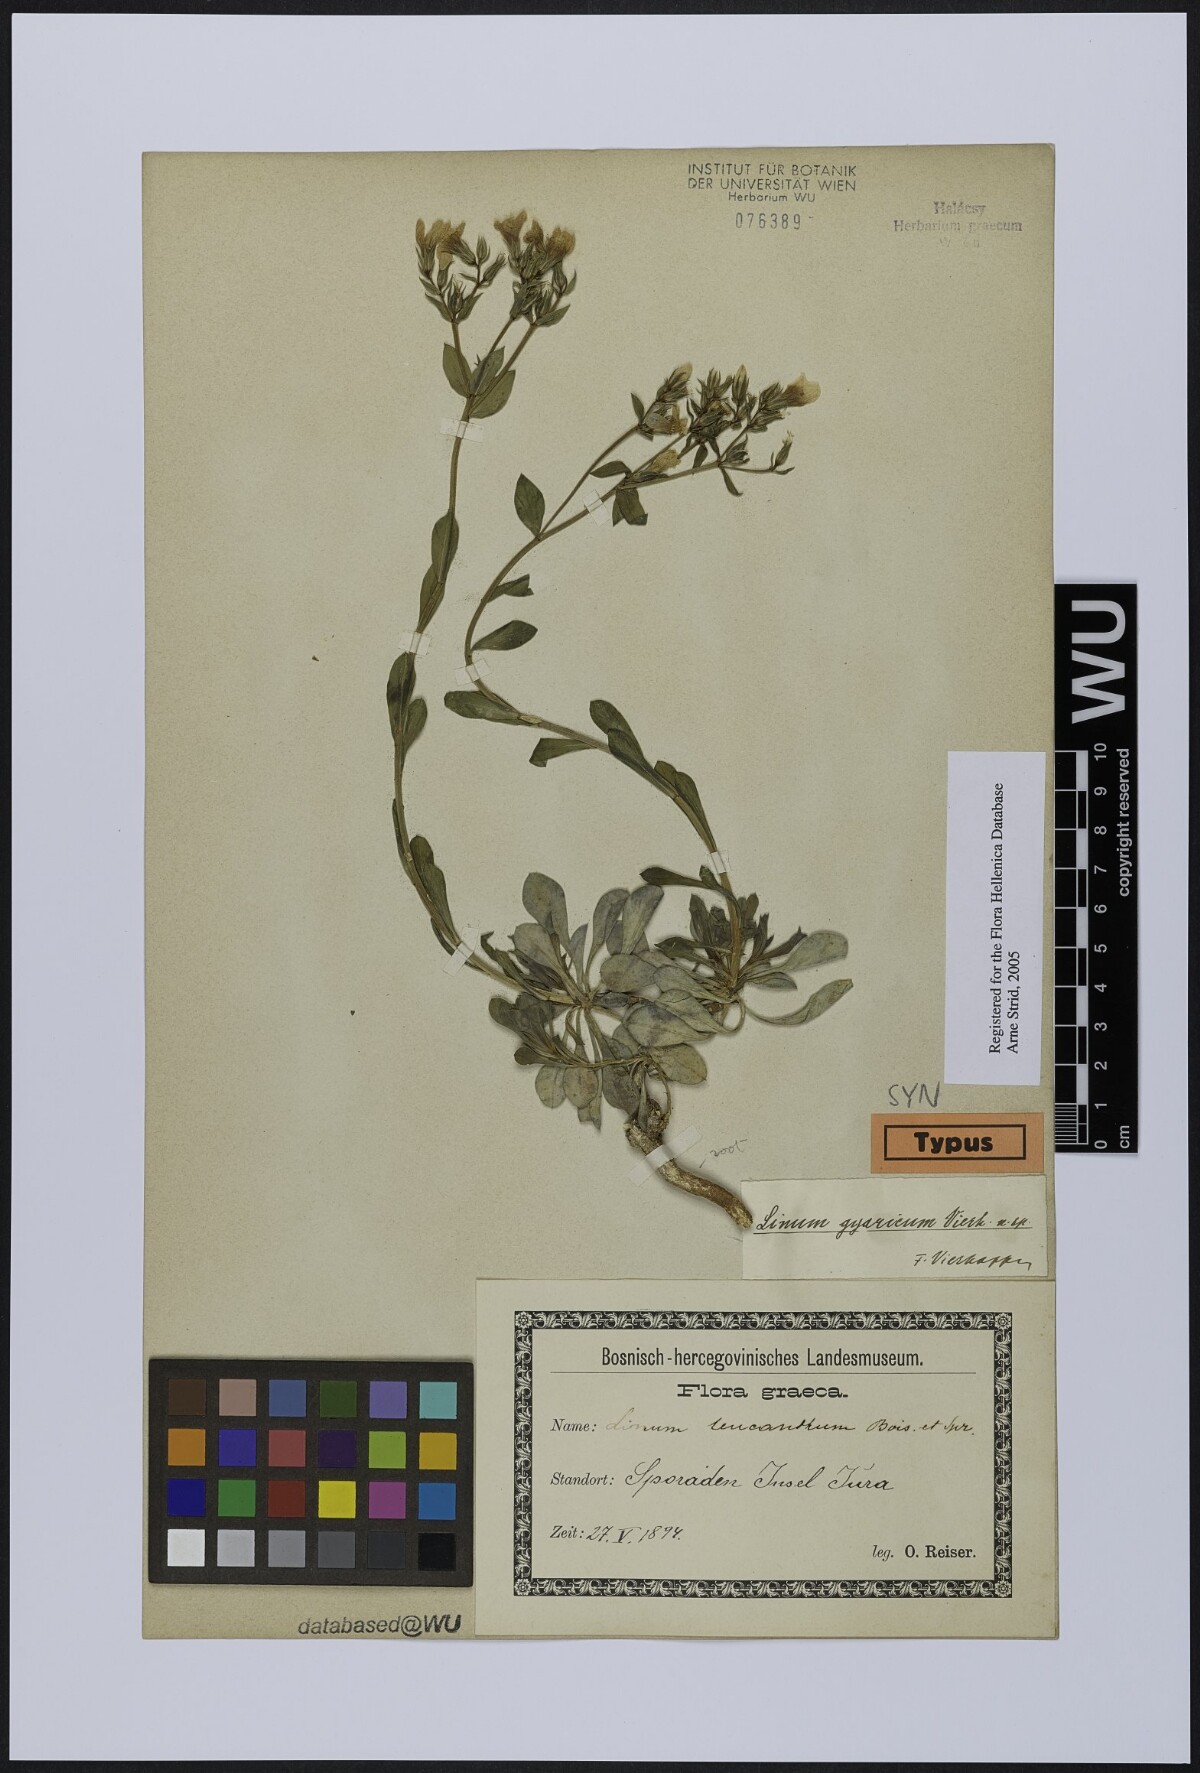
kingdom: Plantae
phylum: Tracheophyta
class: Magnoliopsida
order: Malpighiales
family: Linaceae
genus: Linum
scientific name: Linum gyaricum
